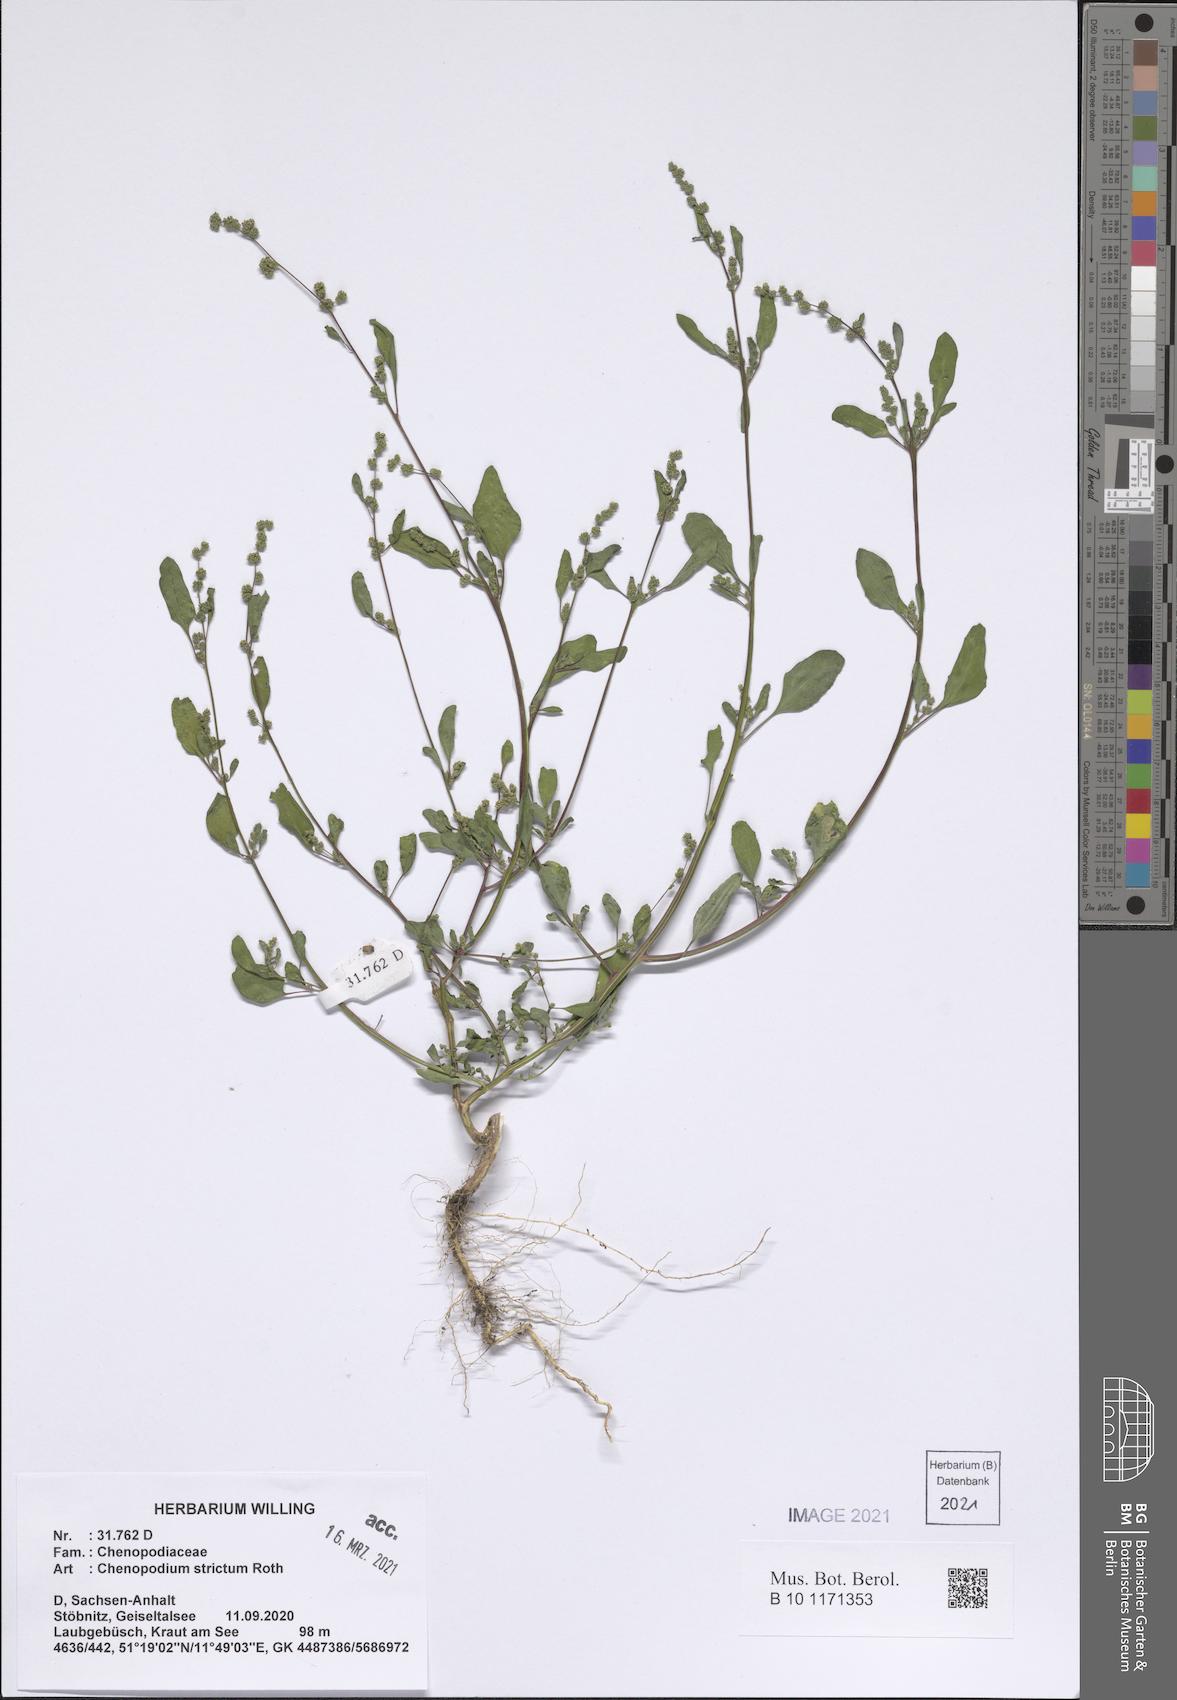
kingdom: Plantae
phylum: Tracheophyta
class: Magnoliopsida
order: Caryophyllales
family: Amaranthaceae
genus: Chenopodium
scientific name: Chenopodium album
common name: Fat-hen
